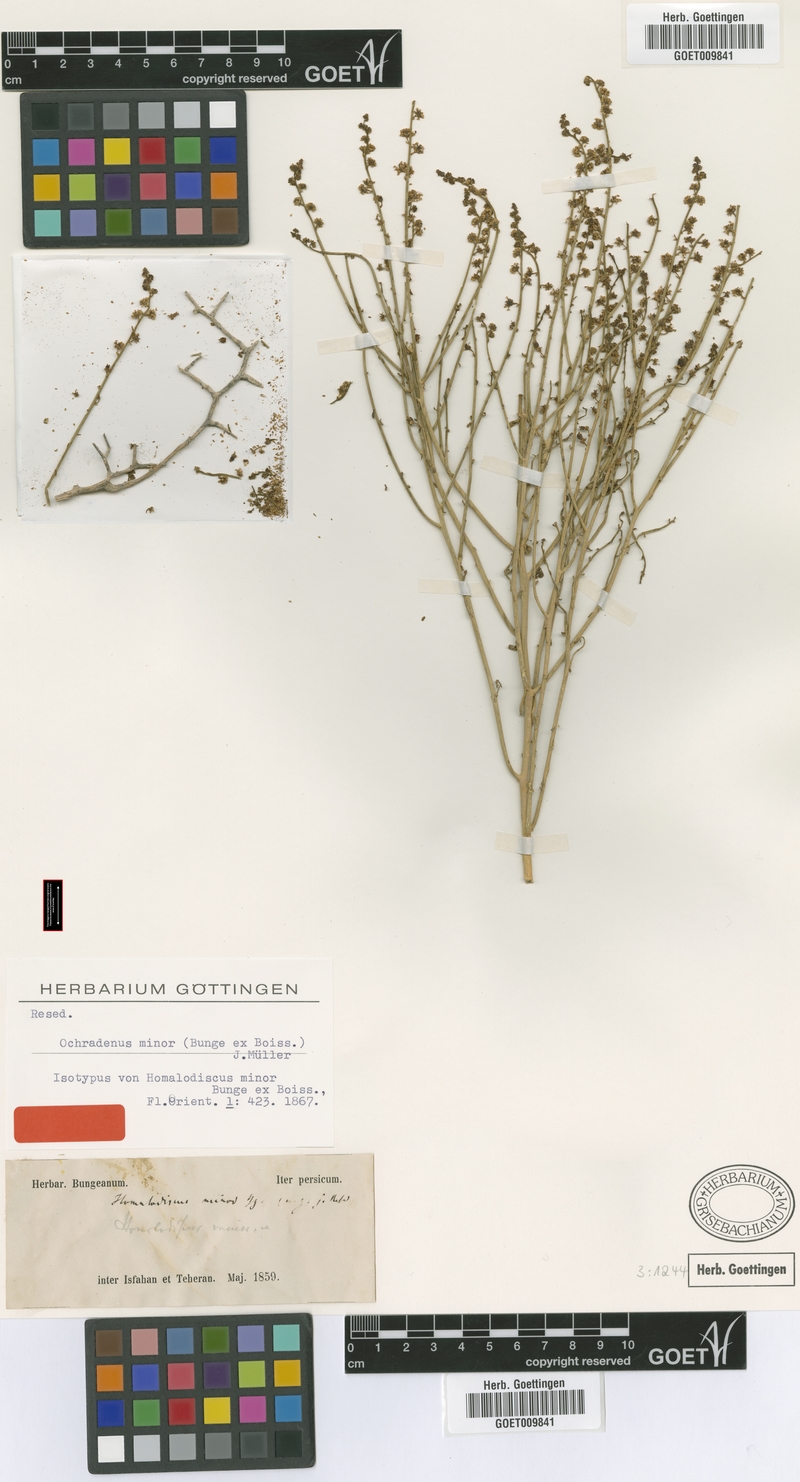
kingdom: Plantae
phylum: Tracheophyta
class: Magnoliopsida
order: Brassicales
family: Resedaceae
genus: Ochradiscus
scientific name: Ochradiscus minor
